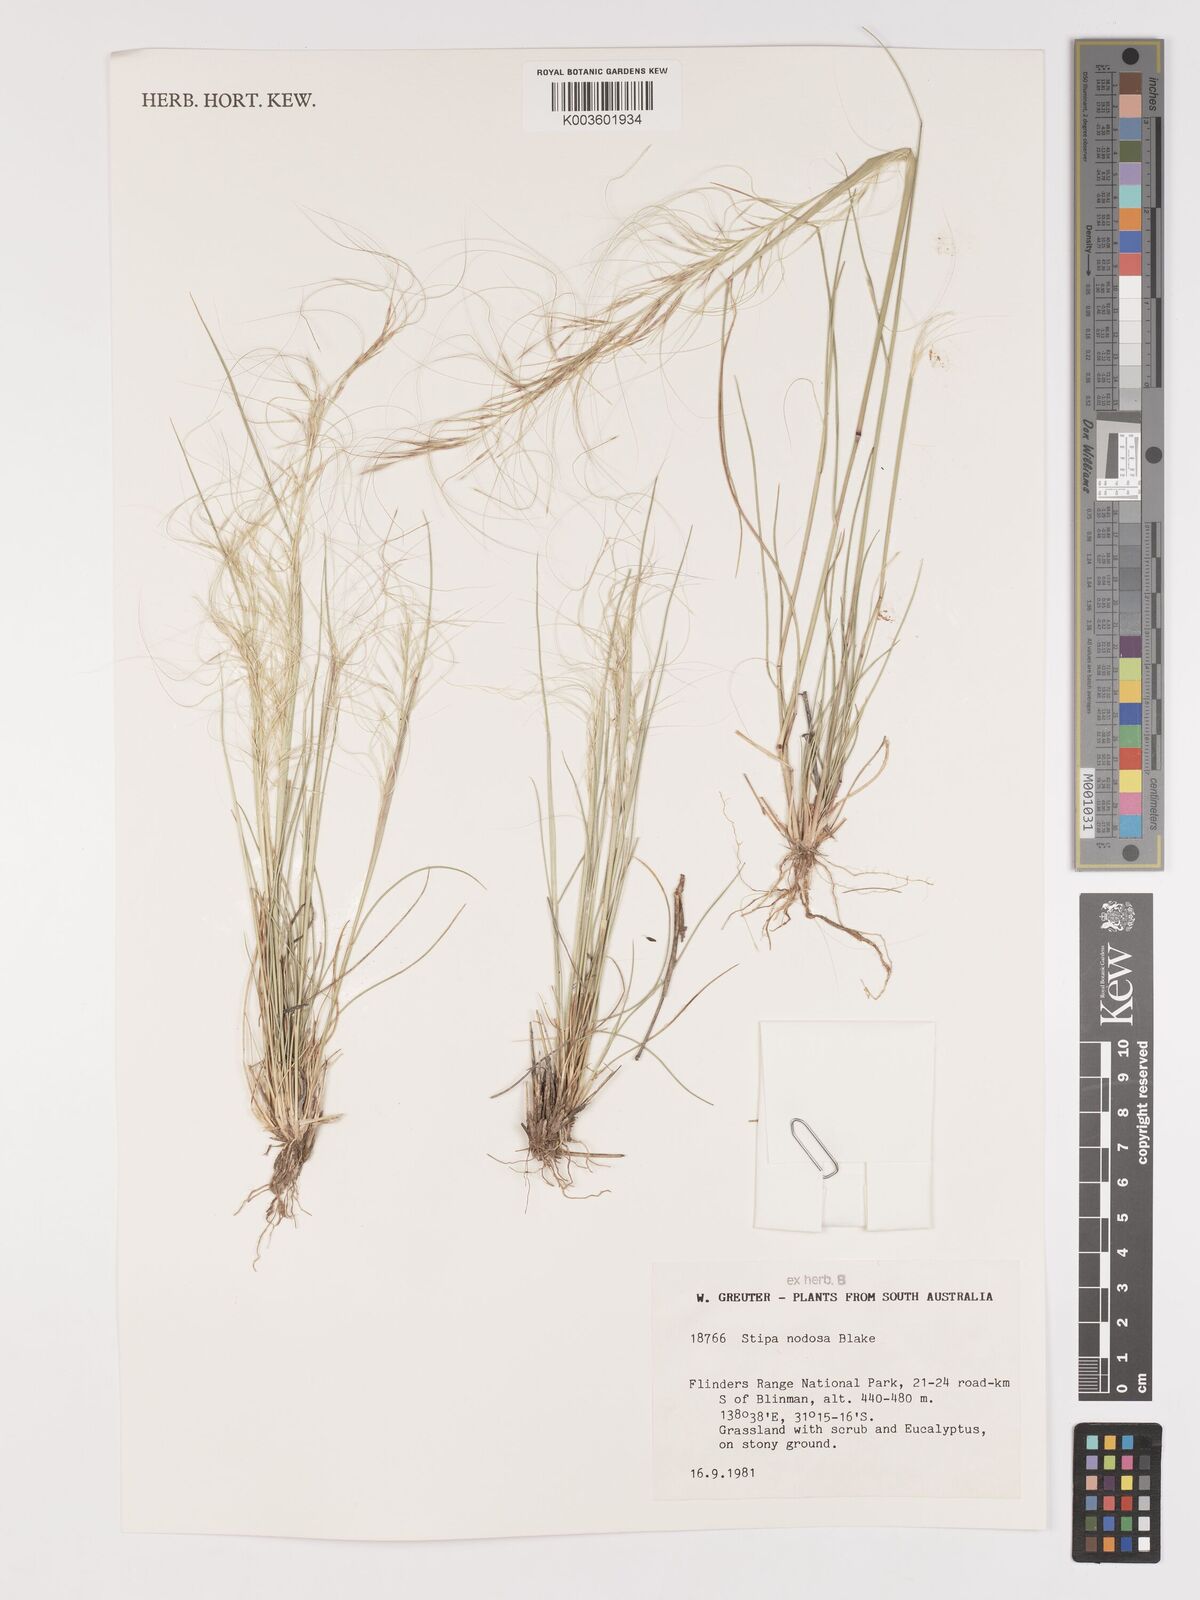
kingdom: Plantae
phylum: Tracheophyta
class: Liliopsida
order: Poales
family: Poaceae
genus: Austrostipa
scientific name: Austrostipa nodosa
